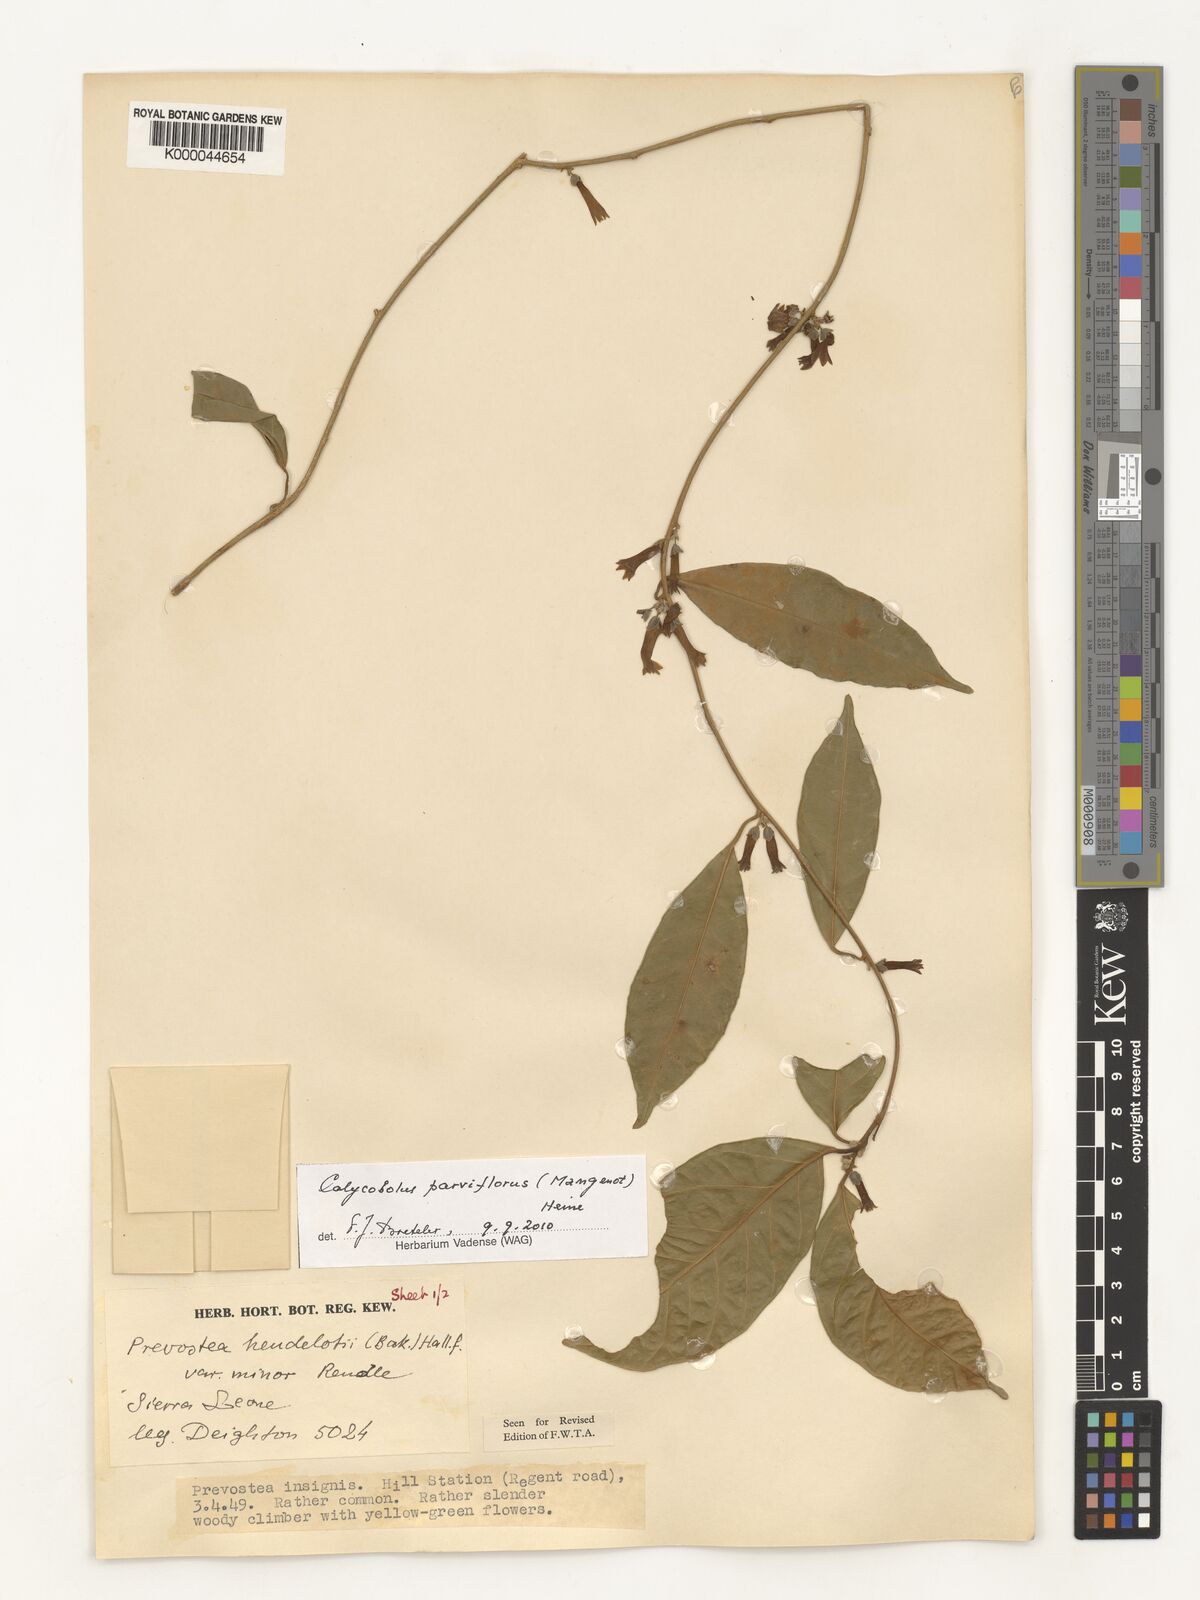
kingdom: Plantae
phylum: Tracheophyta
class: Magnoliopsida
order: Solanales
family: Convolvulaceae
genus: Calycobolus
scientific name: Calycobolus parviflorus
